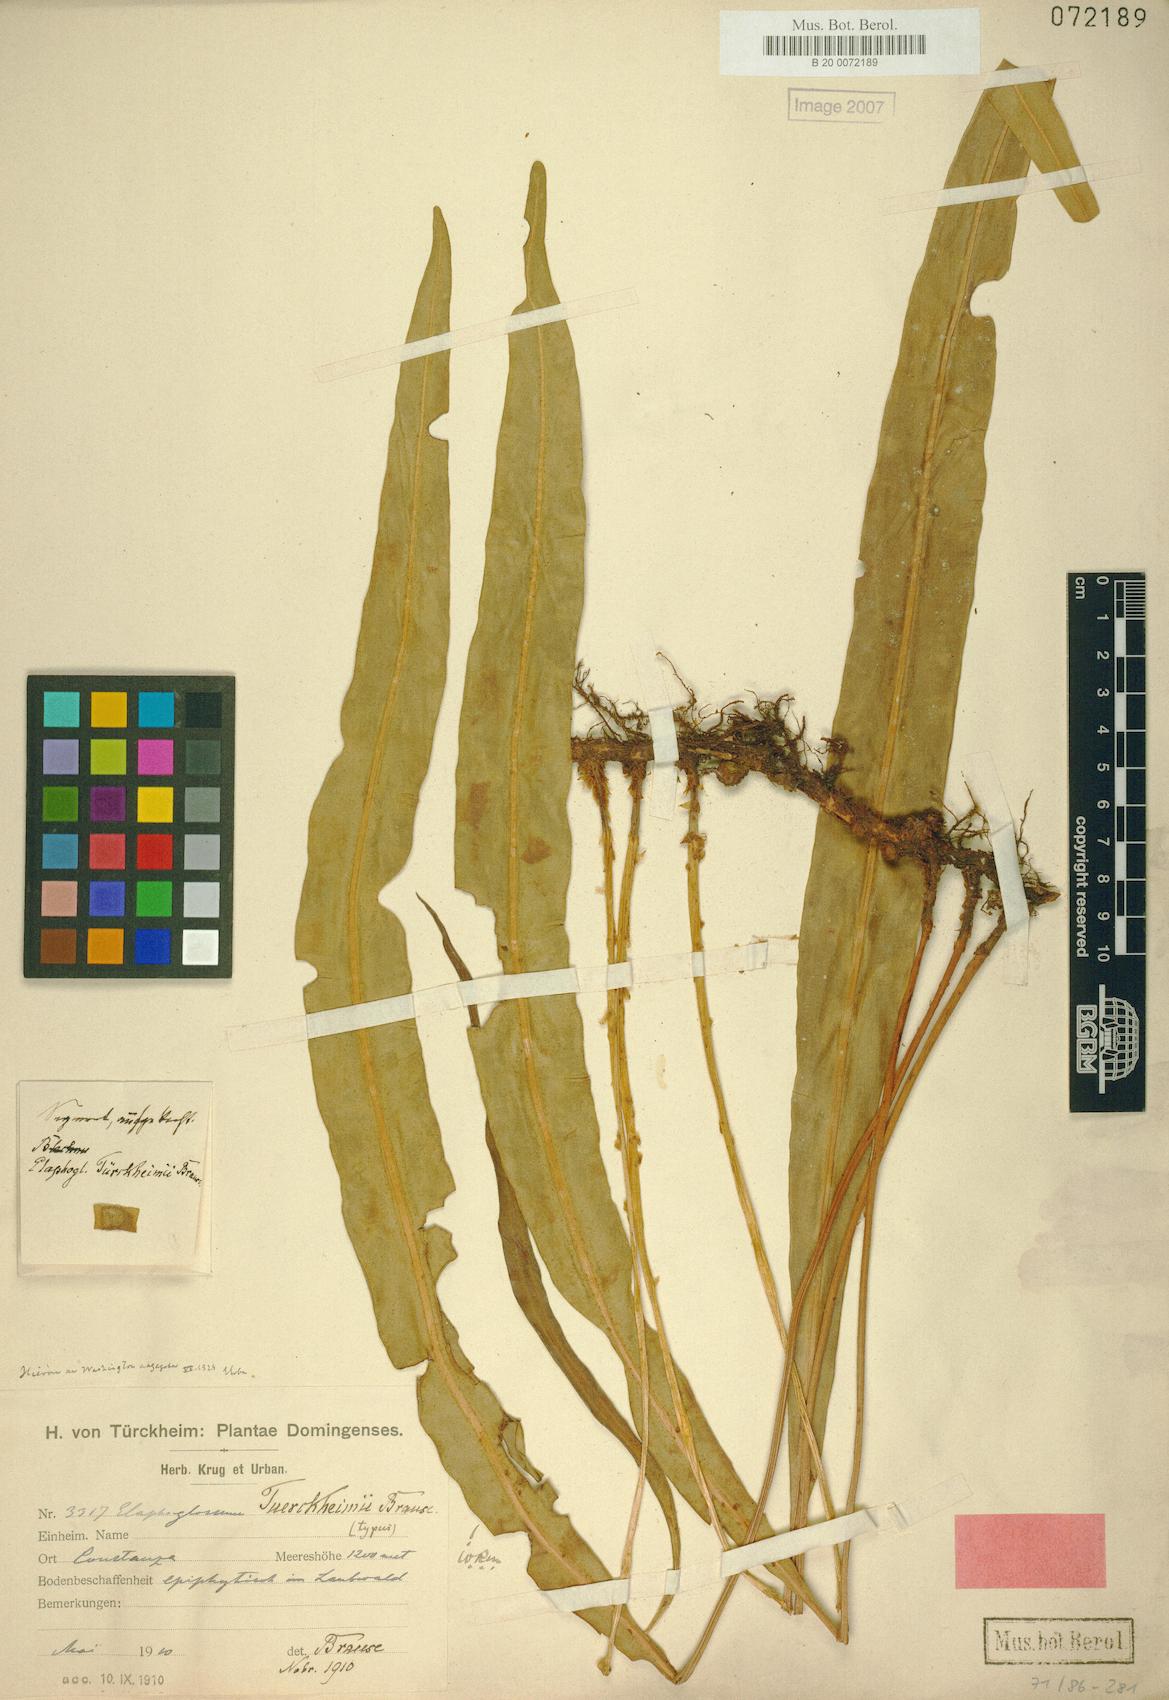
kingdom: Plantae
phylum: Tracheophyta
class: Polypodiopsida
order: Polypodiales
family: Dryopteridaceae
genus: Elaphoglossum
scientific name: Elaphoglossum tuerckheimii
